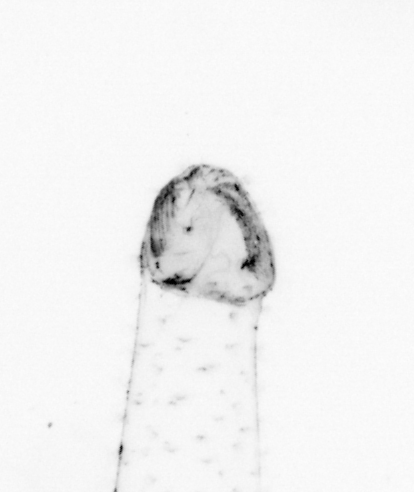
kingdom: Animalia
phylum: Chaetognatha
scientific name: Chaetognatha
